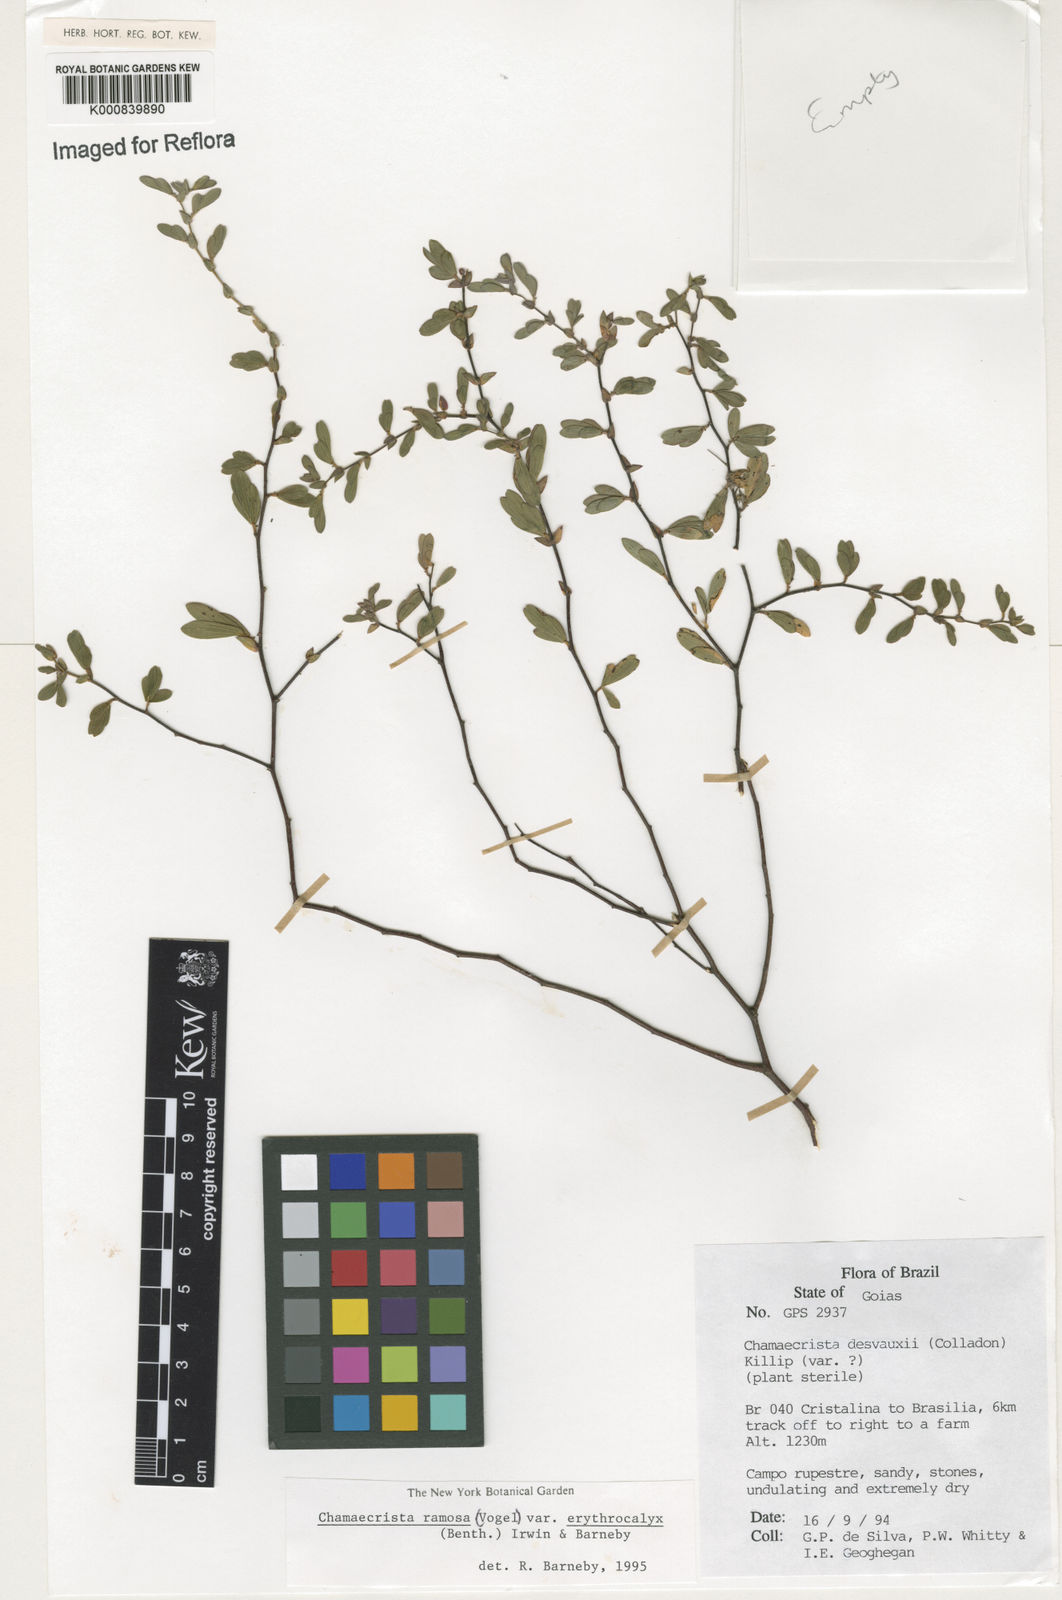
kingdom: Plantae
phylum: Tracheophyta
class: Magnoliopsida
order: Fabales
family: Fabaceae
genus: Chamaecrista
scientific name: Chamaecrista ramosa
